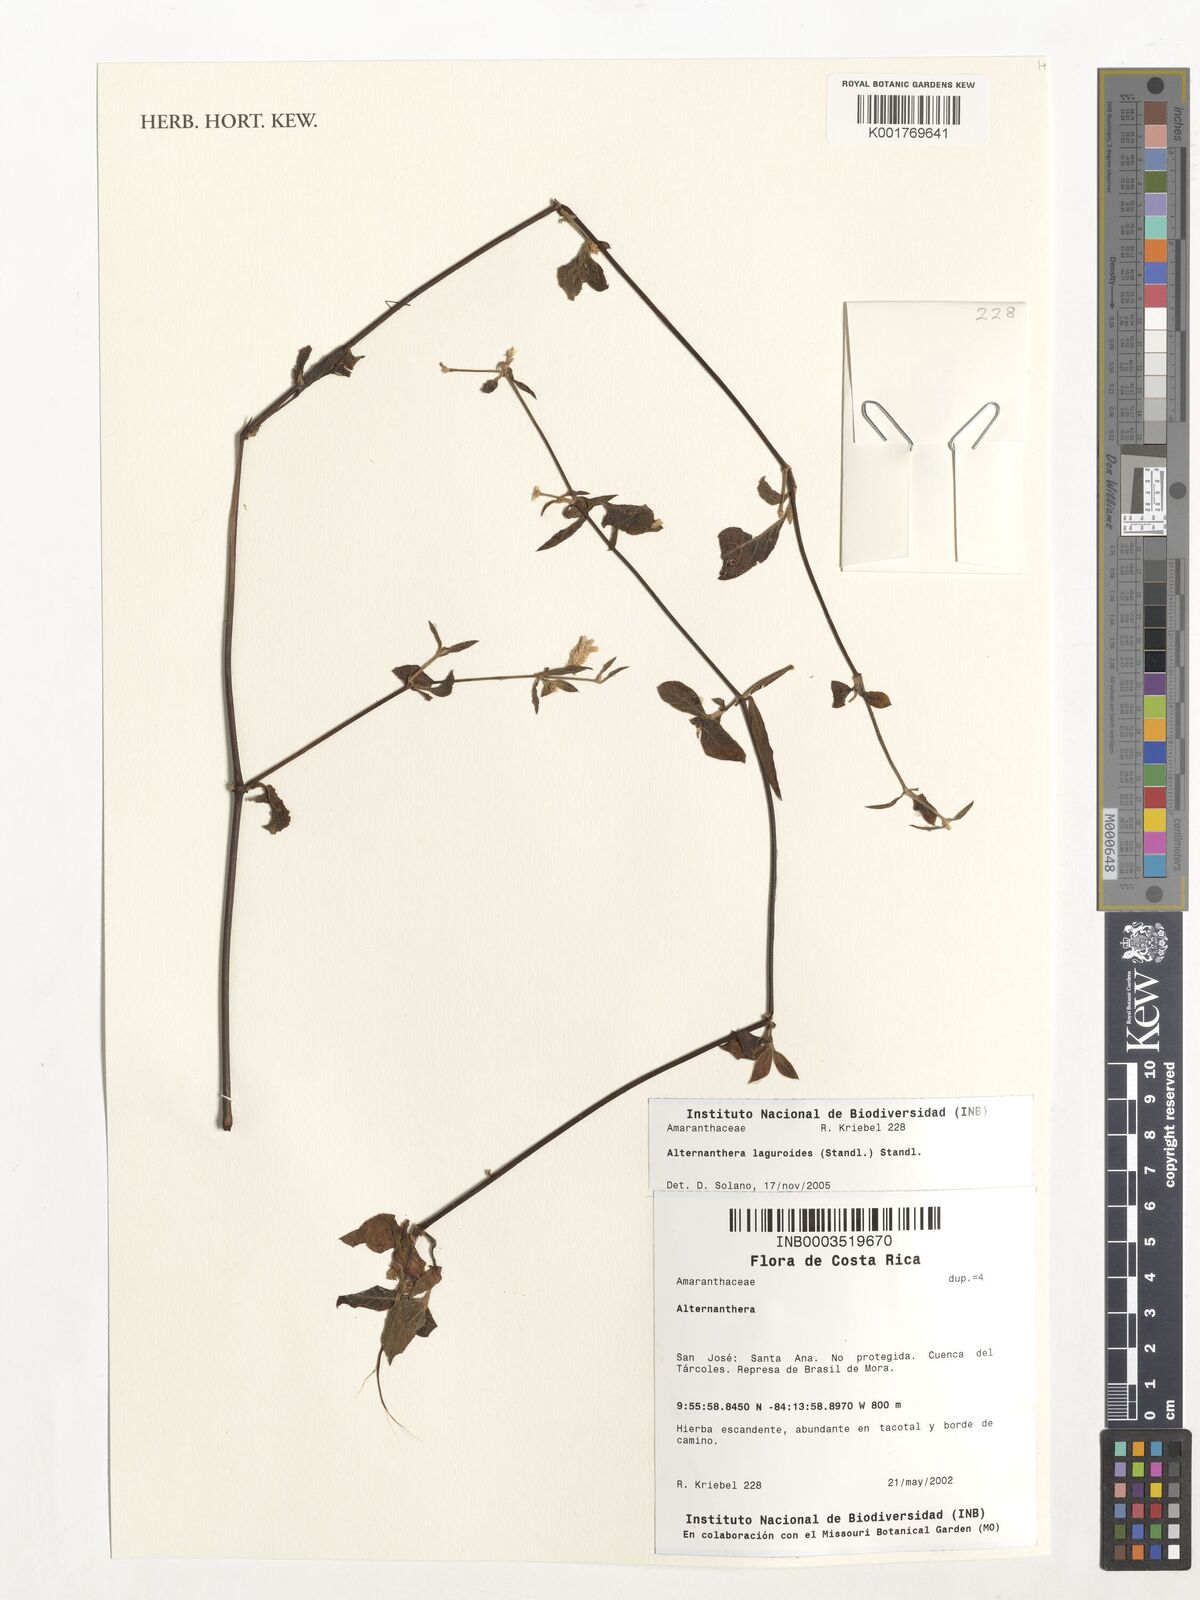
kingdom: Plantae
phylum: Tracheophyta
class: Magnoliopsida
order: Caryophyllales
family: Amaranthaceae
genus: Alternanthera
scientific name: Alternanthera laguroides
